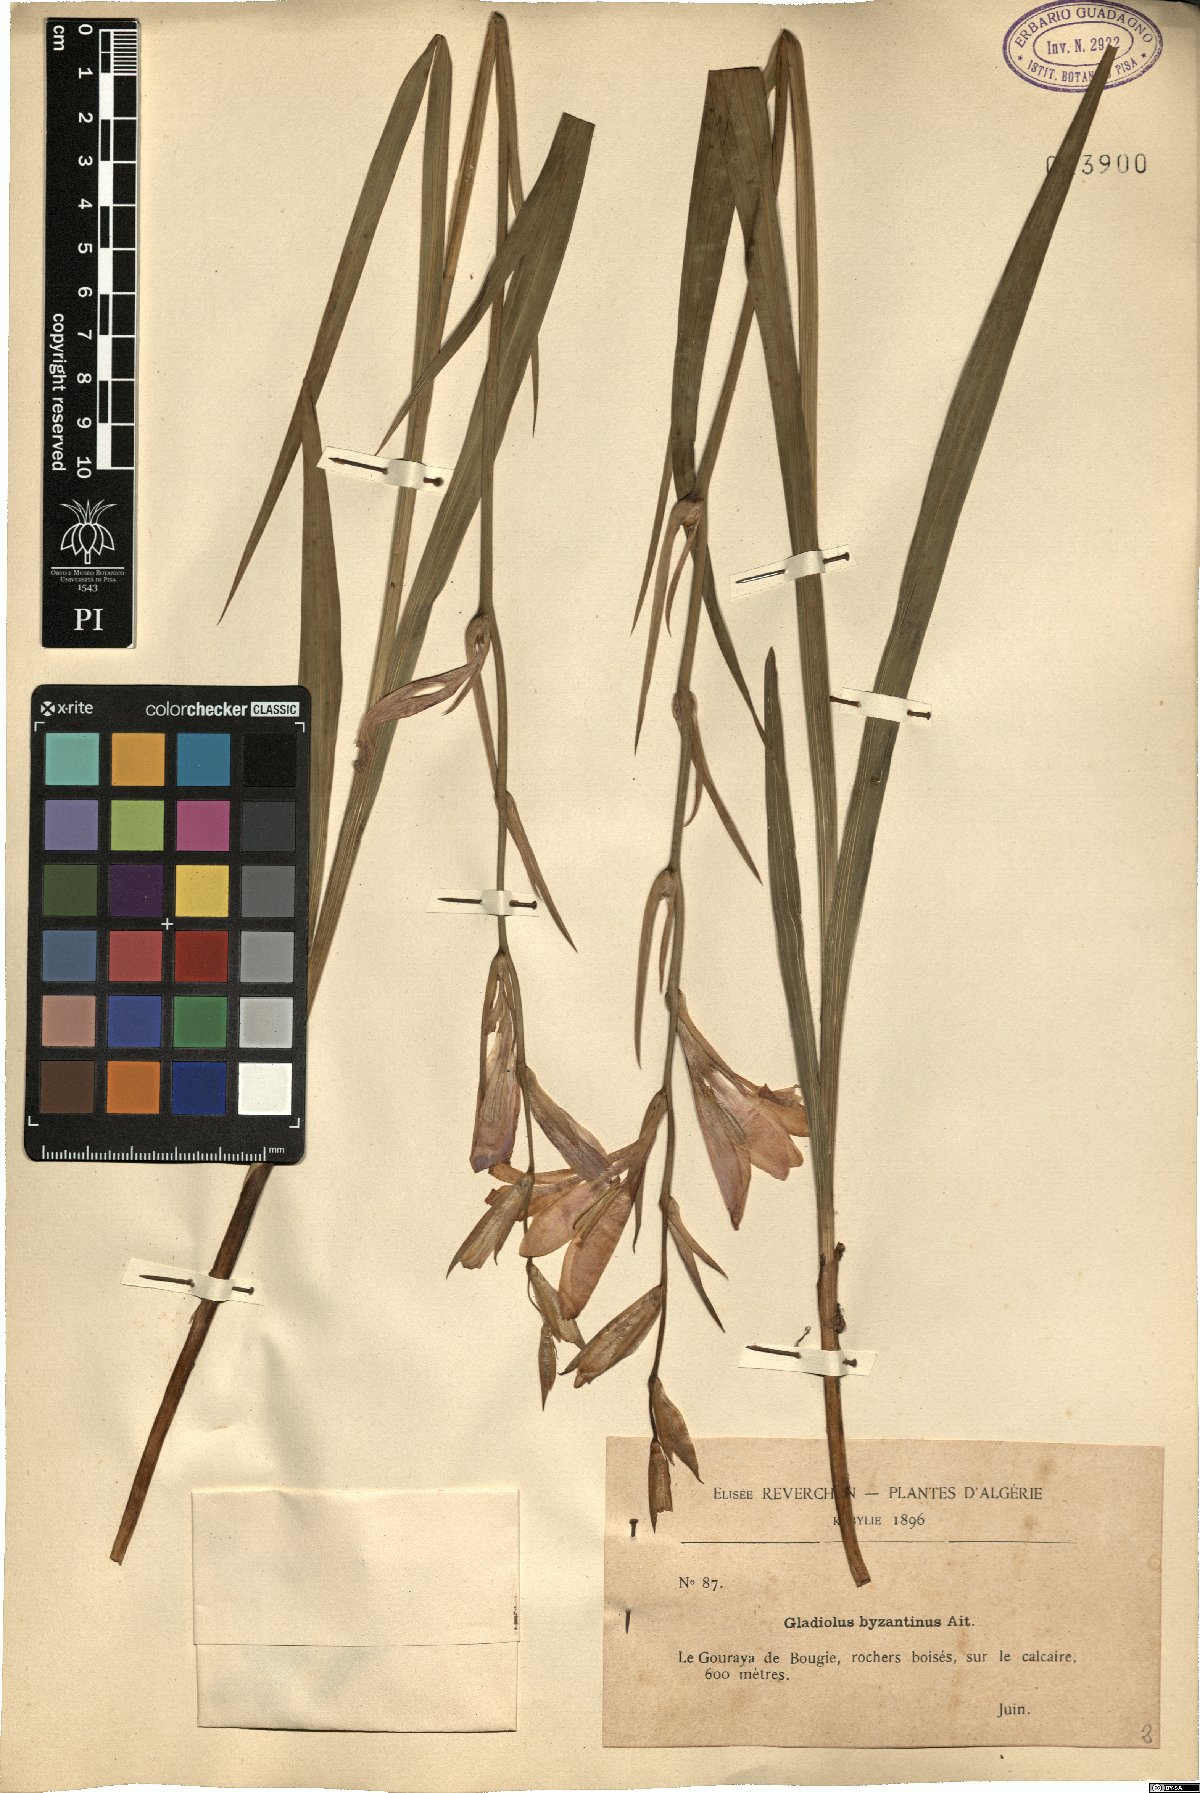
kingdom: Plantae
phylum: Tracheophyta
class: Liliopsida
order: Asparagales
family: Iridaceae
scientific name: Iridaceae
